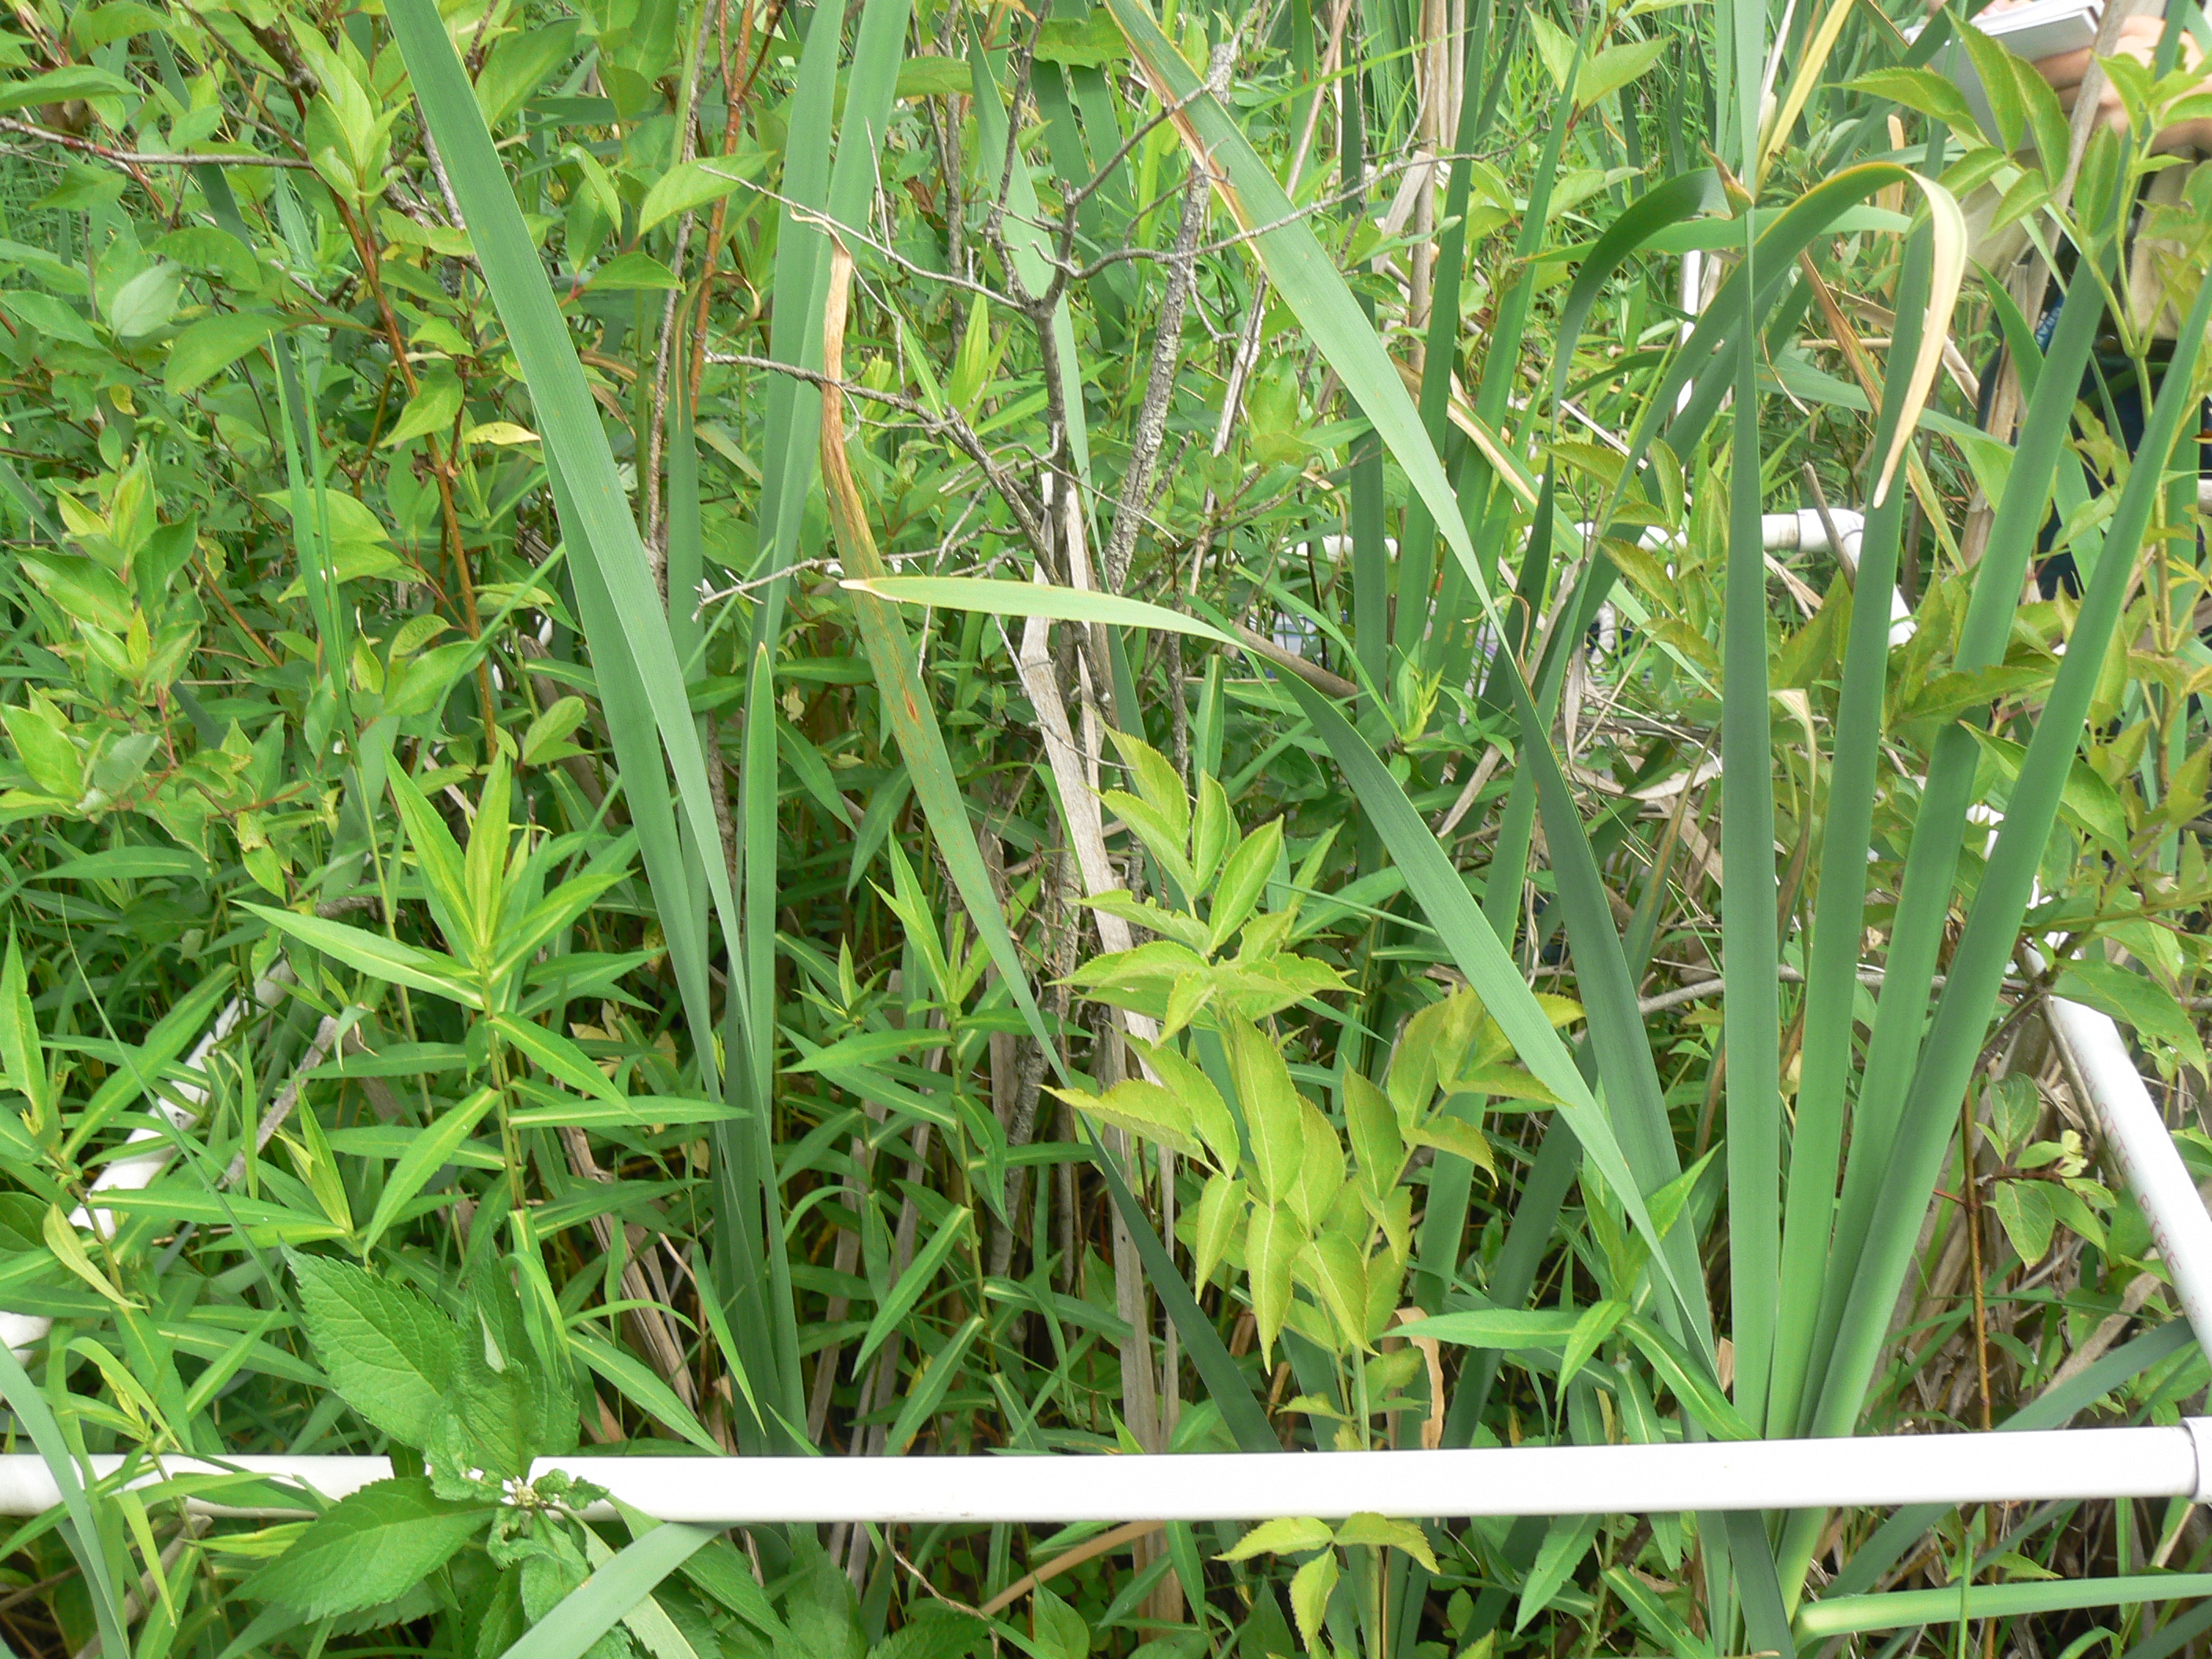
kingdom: Plantae
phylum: Tracheophyta
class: Liliopsida
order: Poales
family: Cyperaceae
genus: Carex
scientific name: Carex stipata
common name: Awl-fruited sedge
